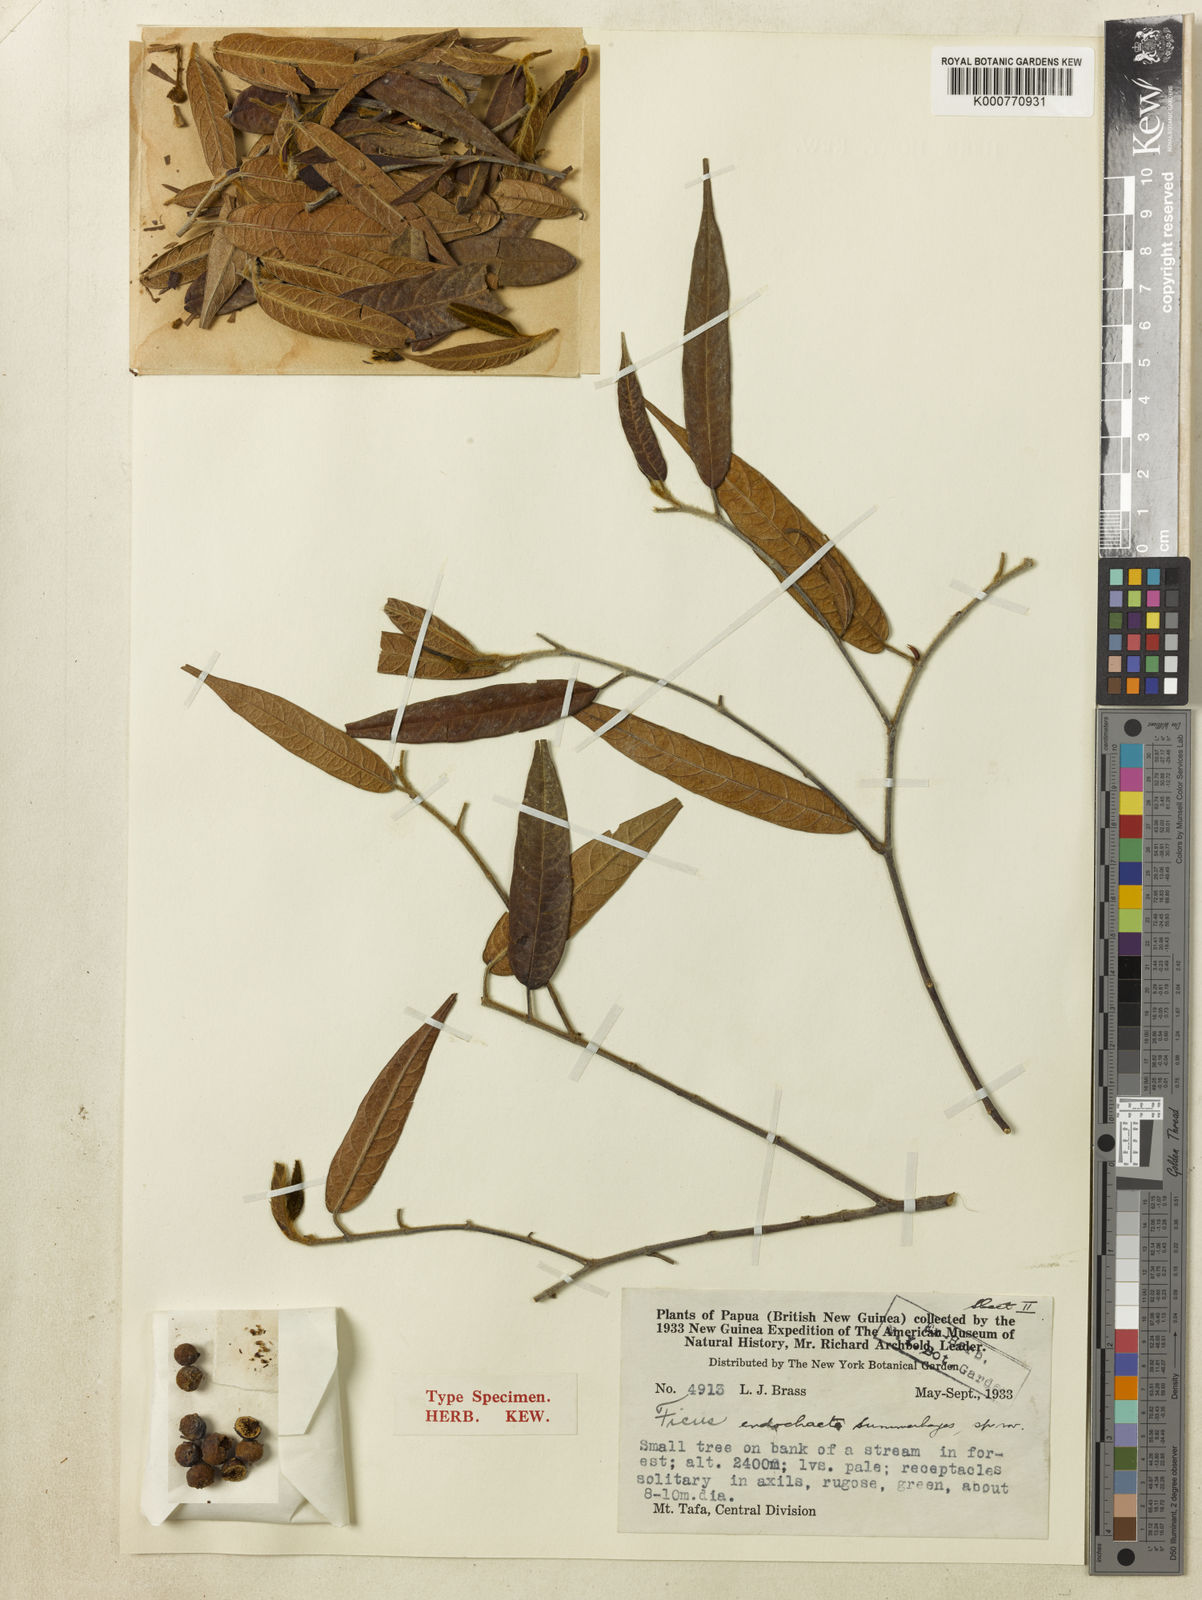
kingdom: Plantae
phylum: Tracheophyta
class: Magnoliopsida
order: Rosales
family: Moraceae
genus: Ficus
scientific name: Ficus endochaete
